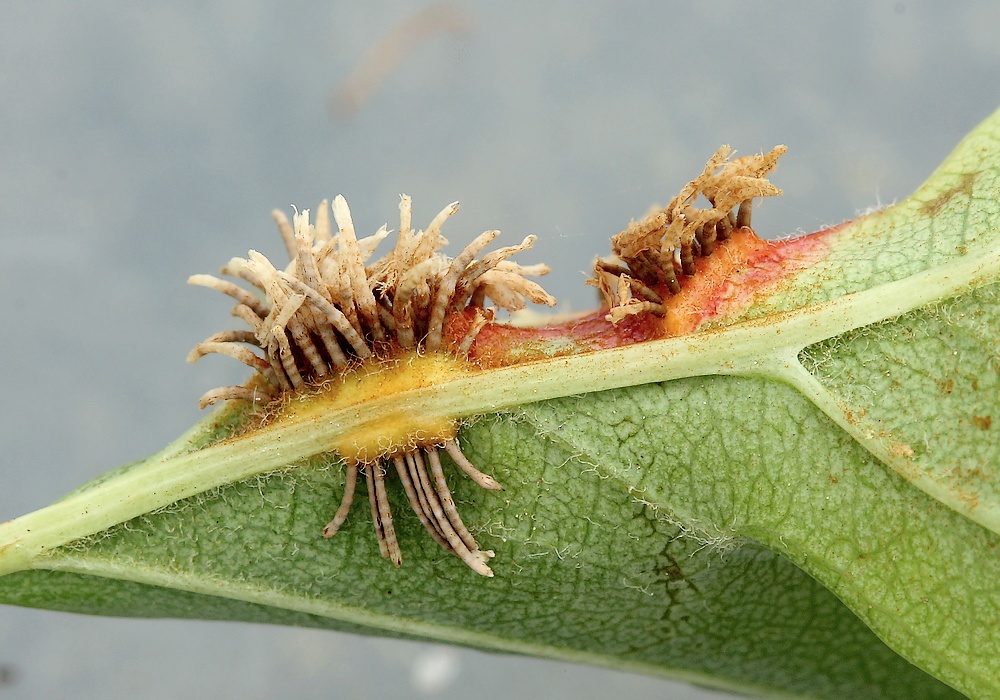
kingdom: Fungi
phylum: Basidiomycota
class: Pucciniomycetes
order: Pucciniales
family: Gymnosporangiaceae
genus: Gymnosporangium
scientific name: Gymnosporangium clavariiforme
